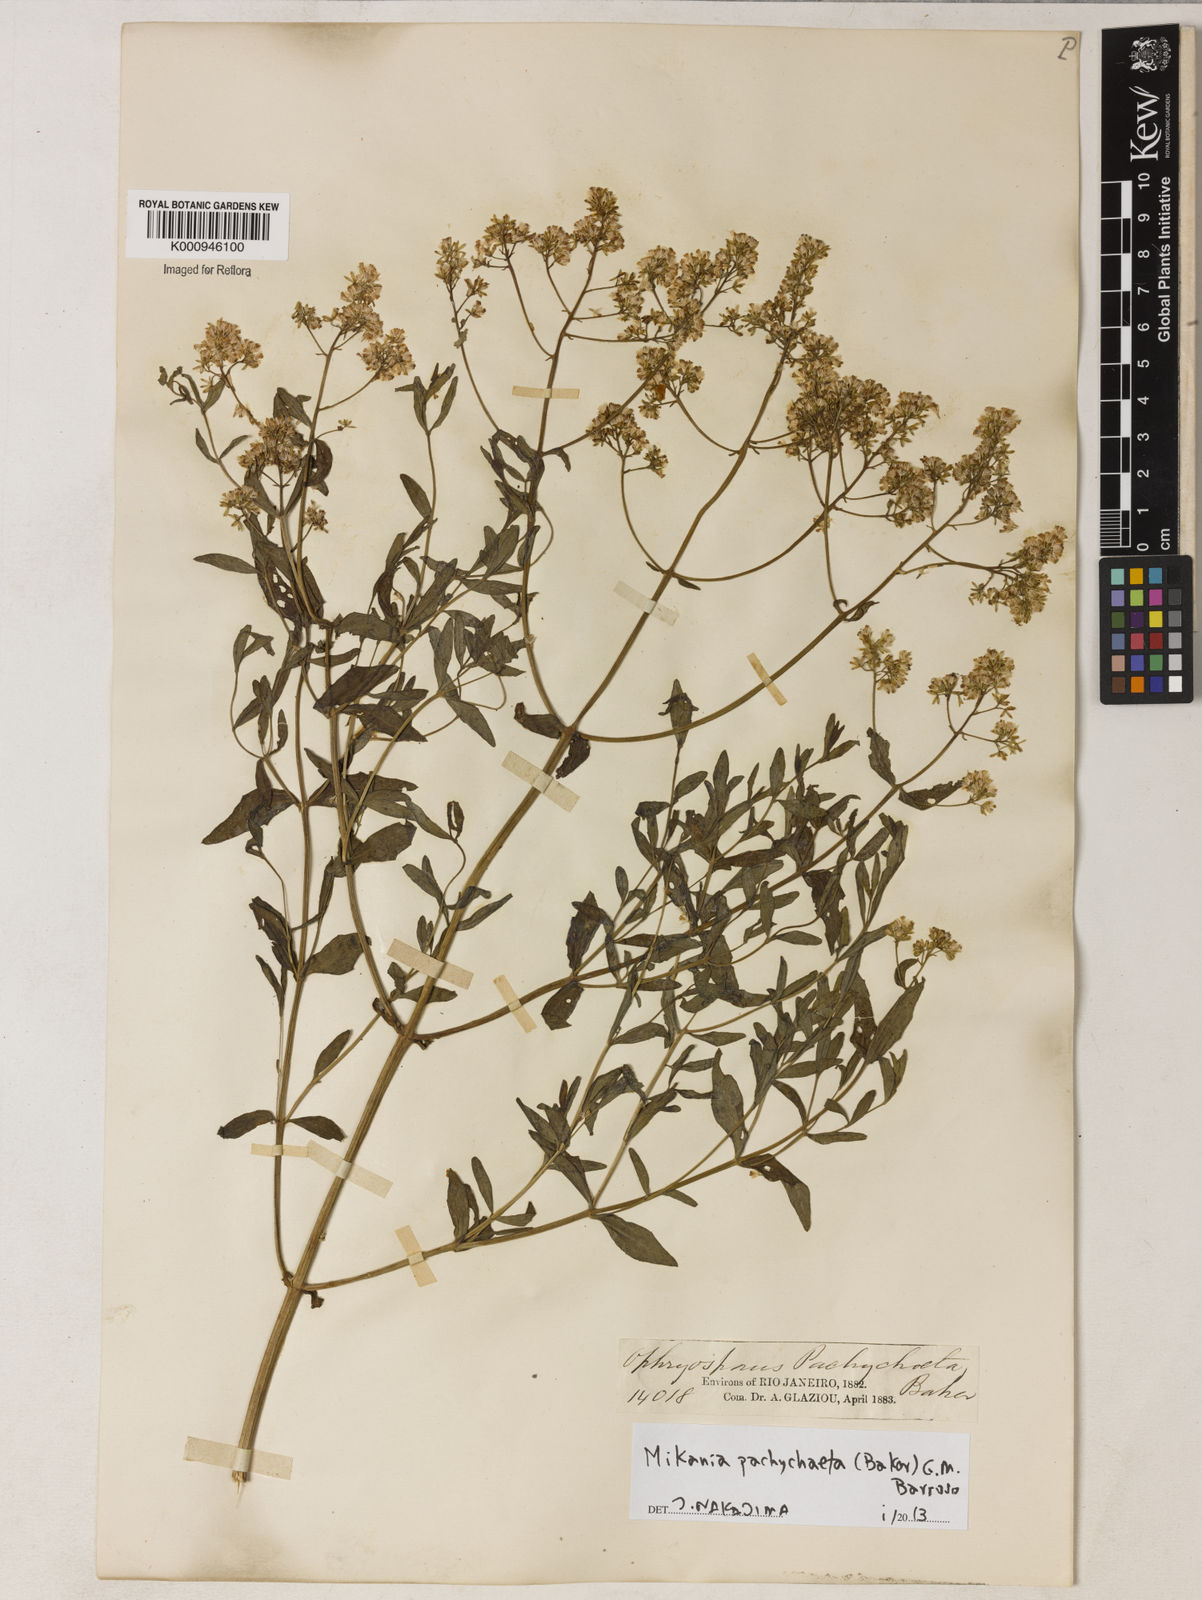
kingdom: Plantae
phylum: Tracheophyta
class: Magnoliopsida
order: Asterales
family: Asteraceae
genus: Mikania
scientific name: Mikania pachychaeta
